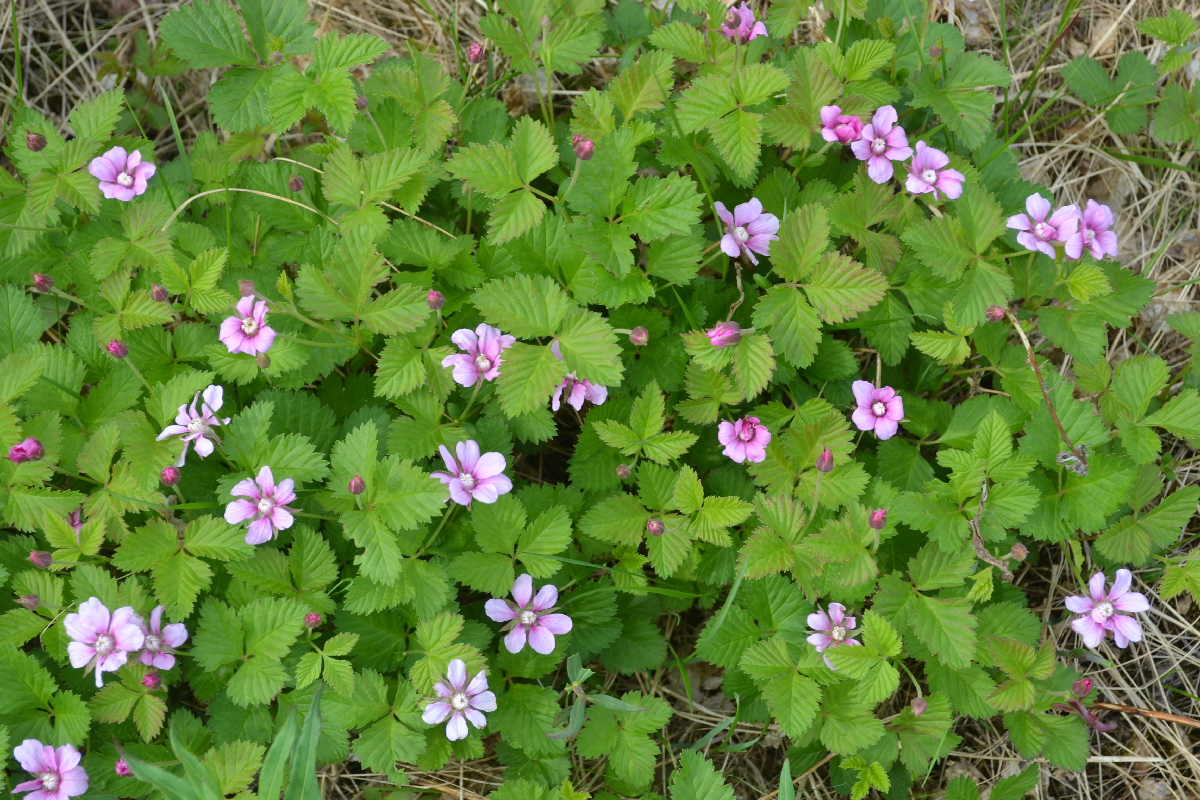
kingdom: Plantae
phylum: Tracheophyta
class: Magnoliopsida
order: Rosales
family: Rosaceae
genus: Rubus
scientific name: Rubus arcticus
